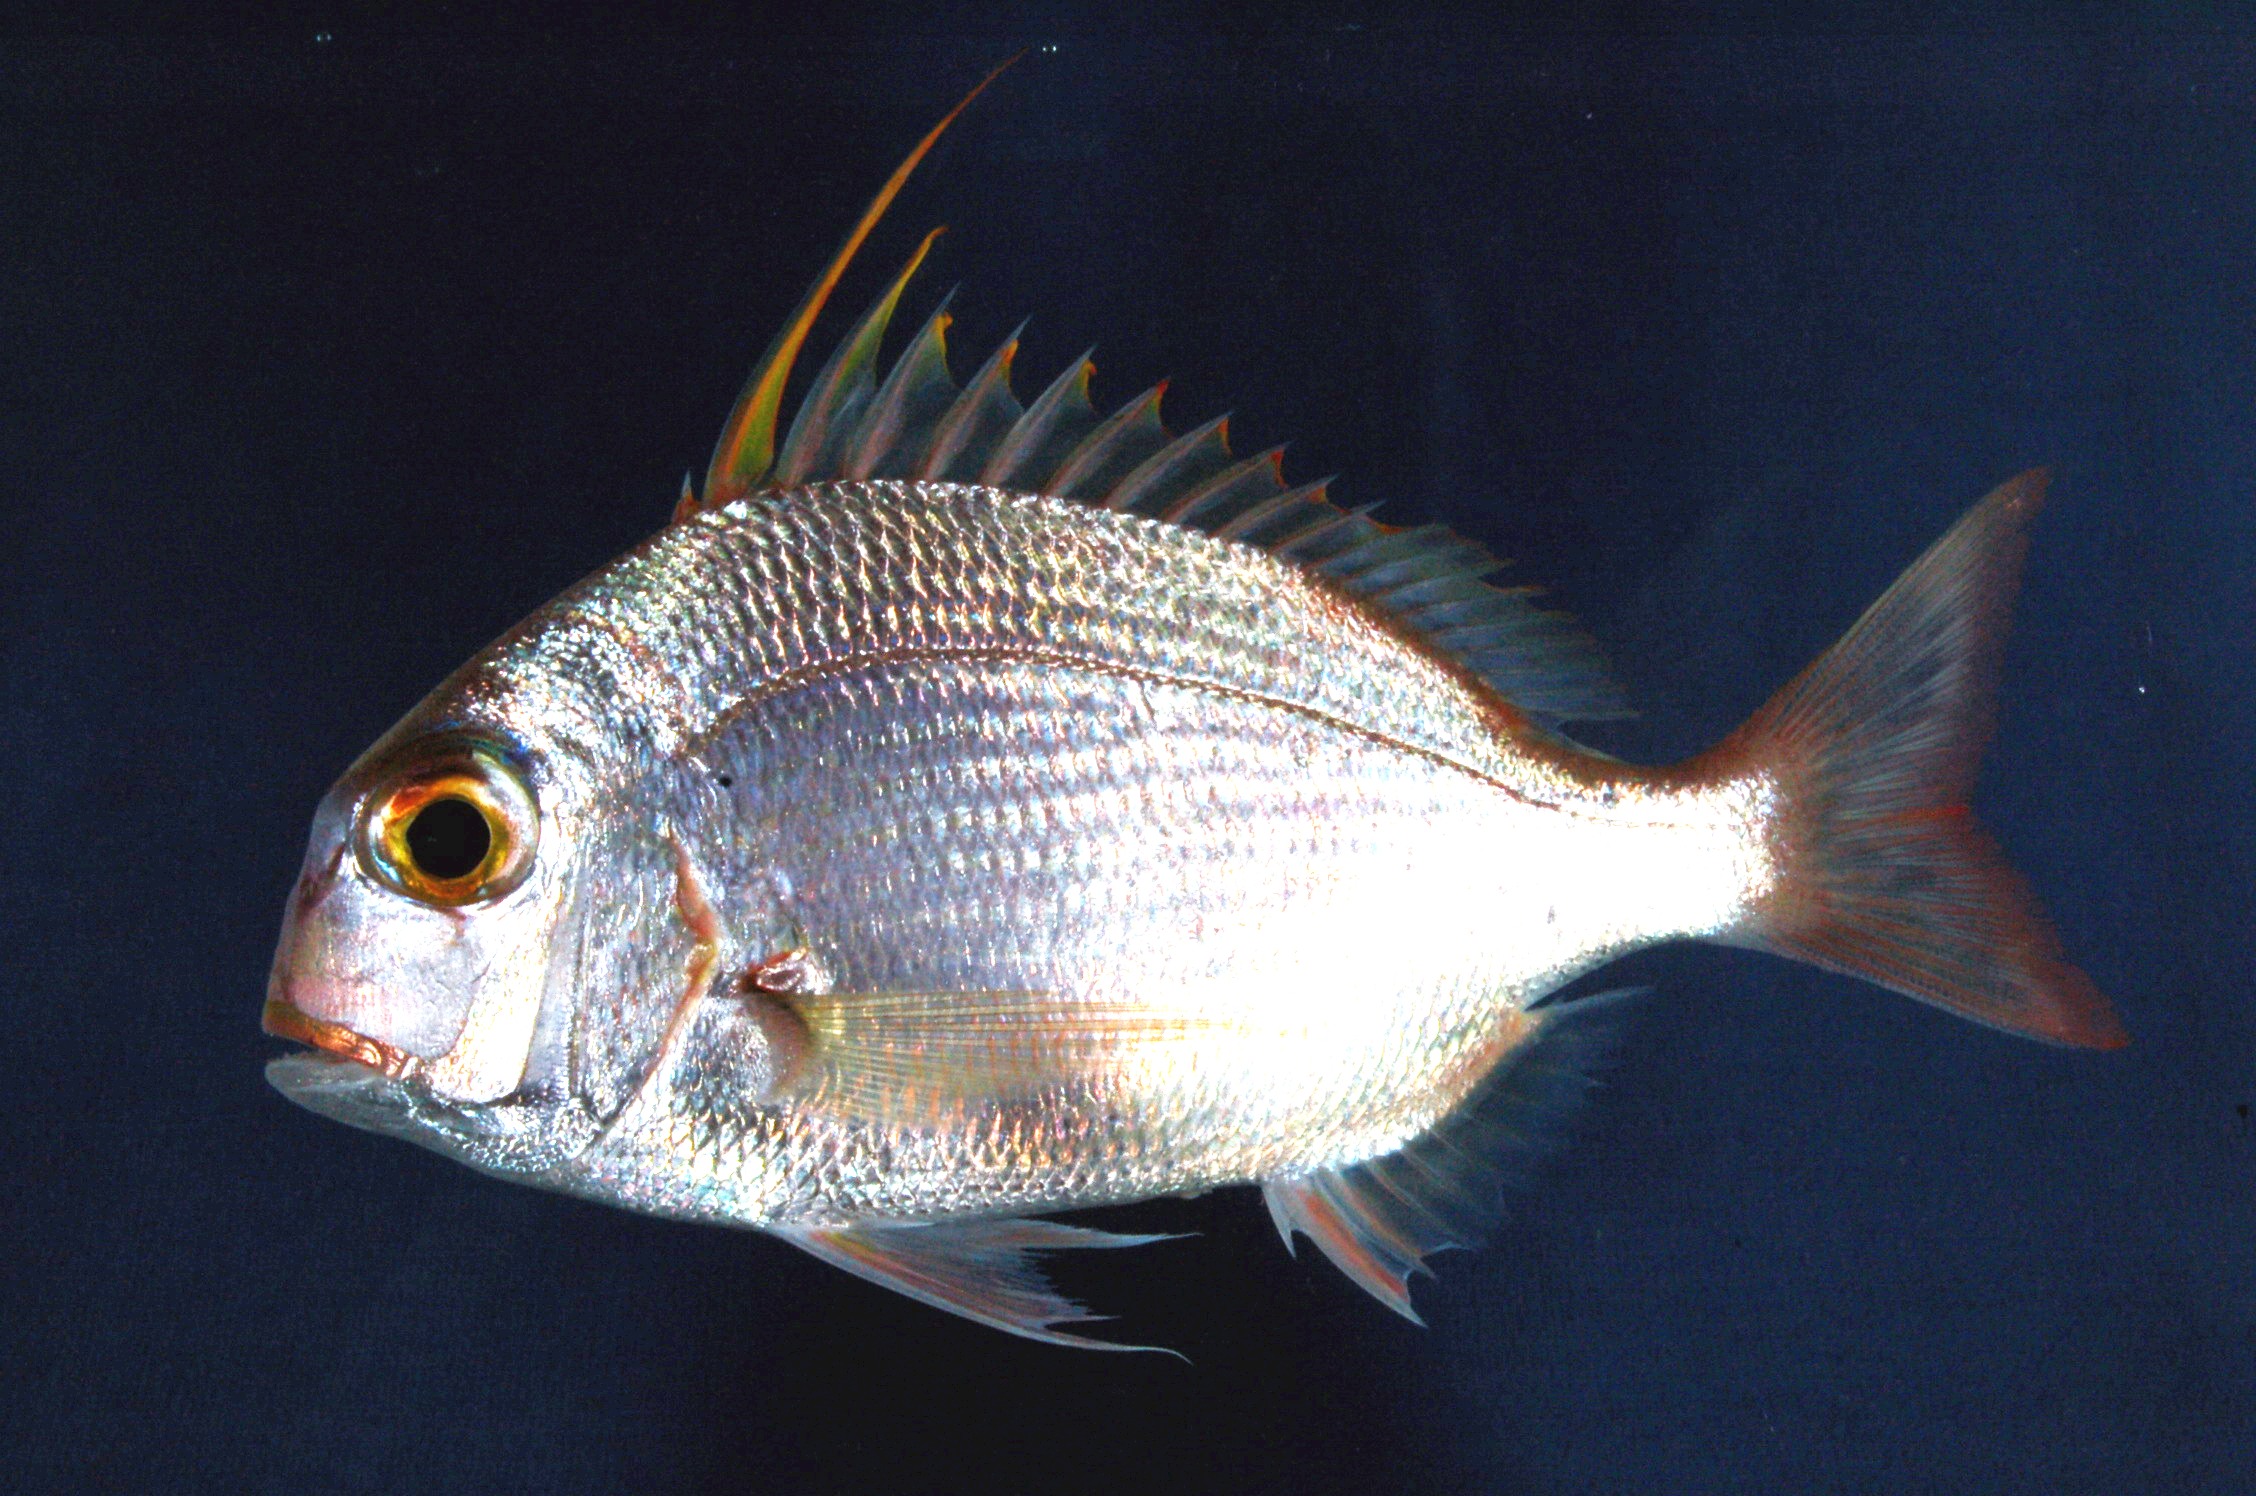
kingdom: Animalia
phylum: Chordata
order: Perciformes
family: Sparidae
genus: Argyrops
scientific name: Argyrops filamentosus
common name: Soldier bream
